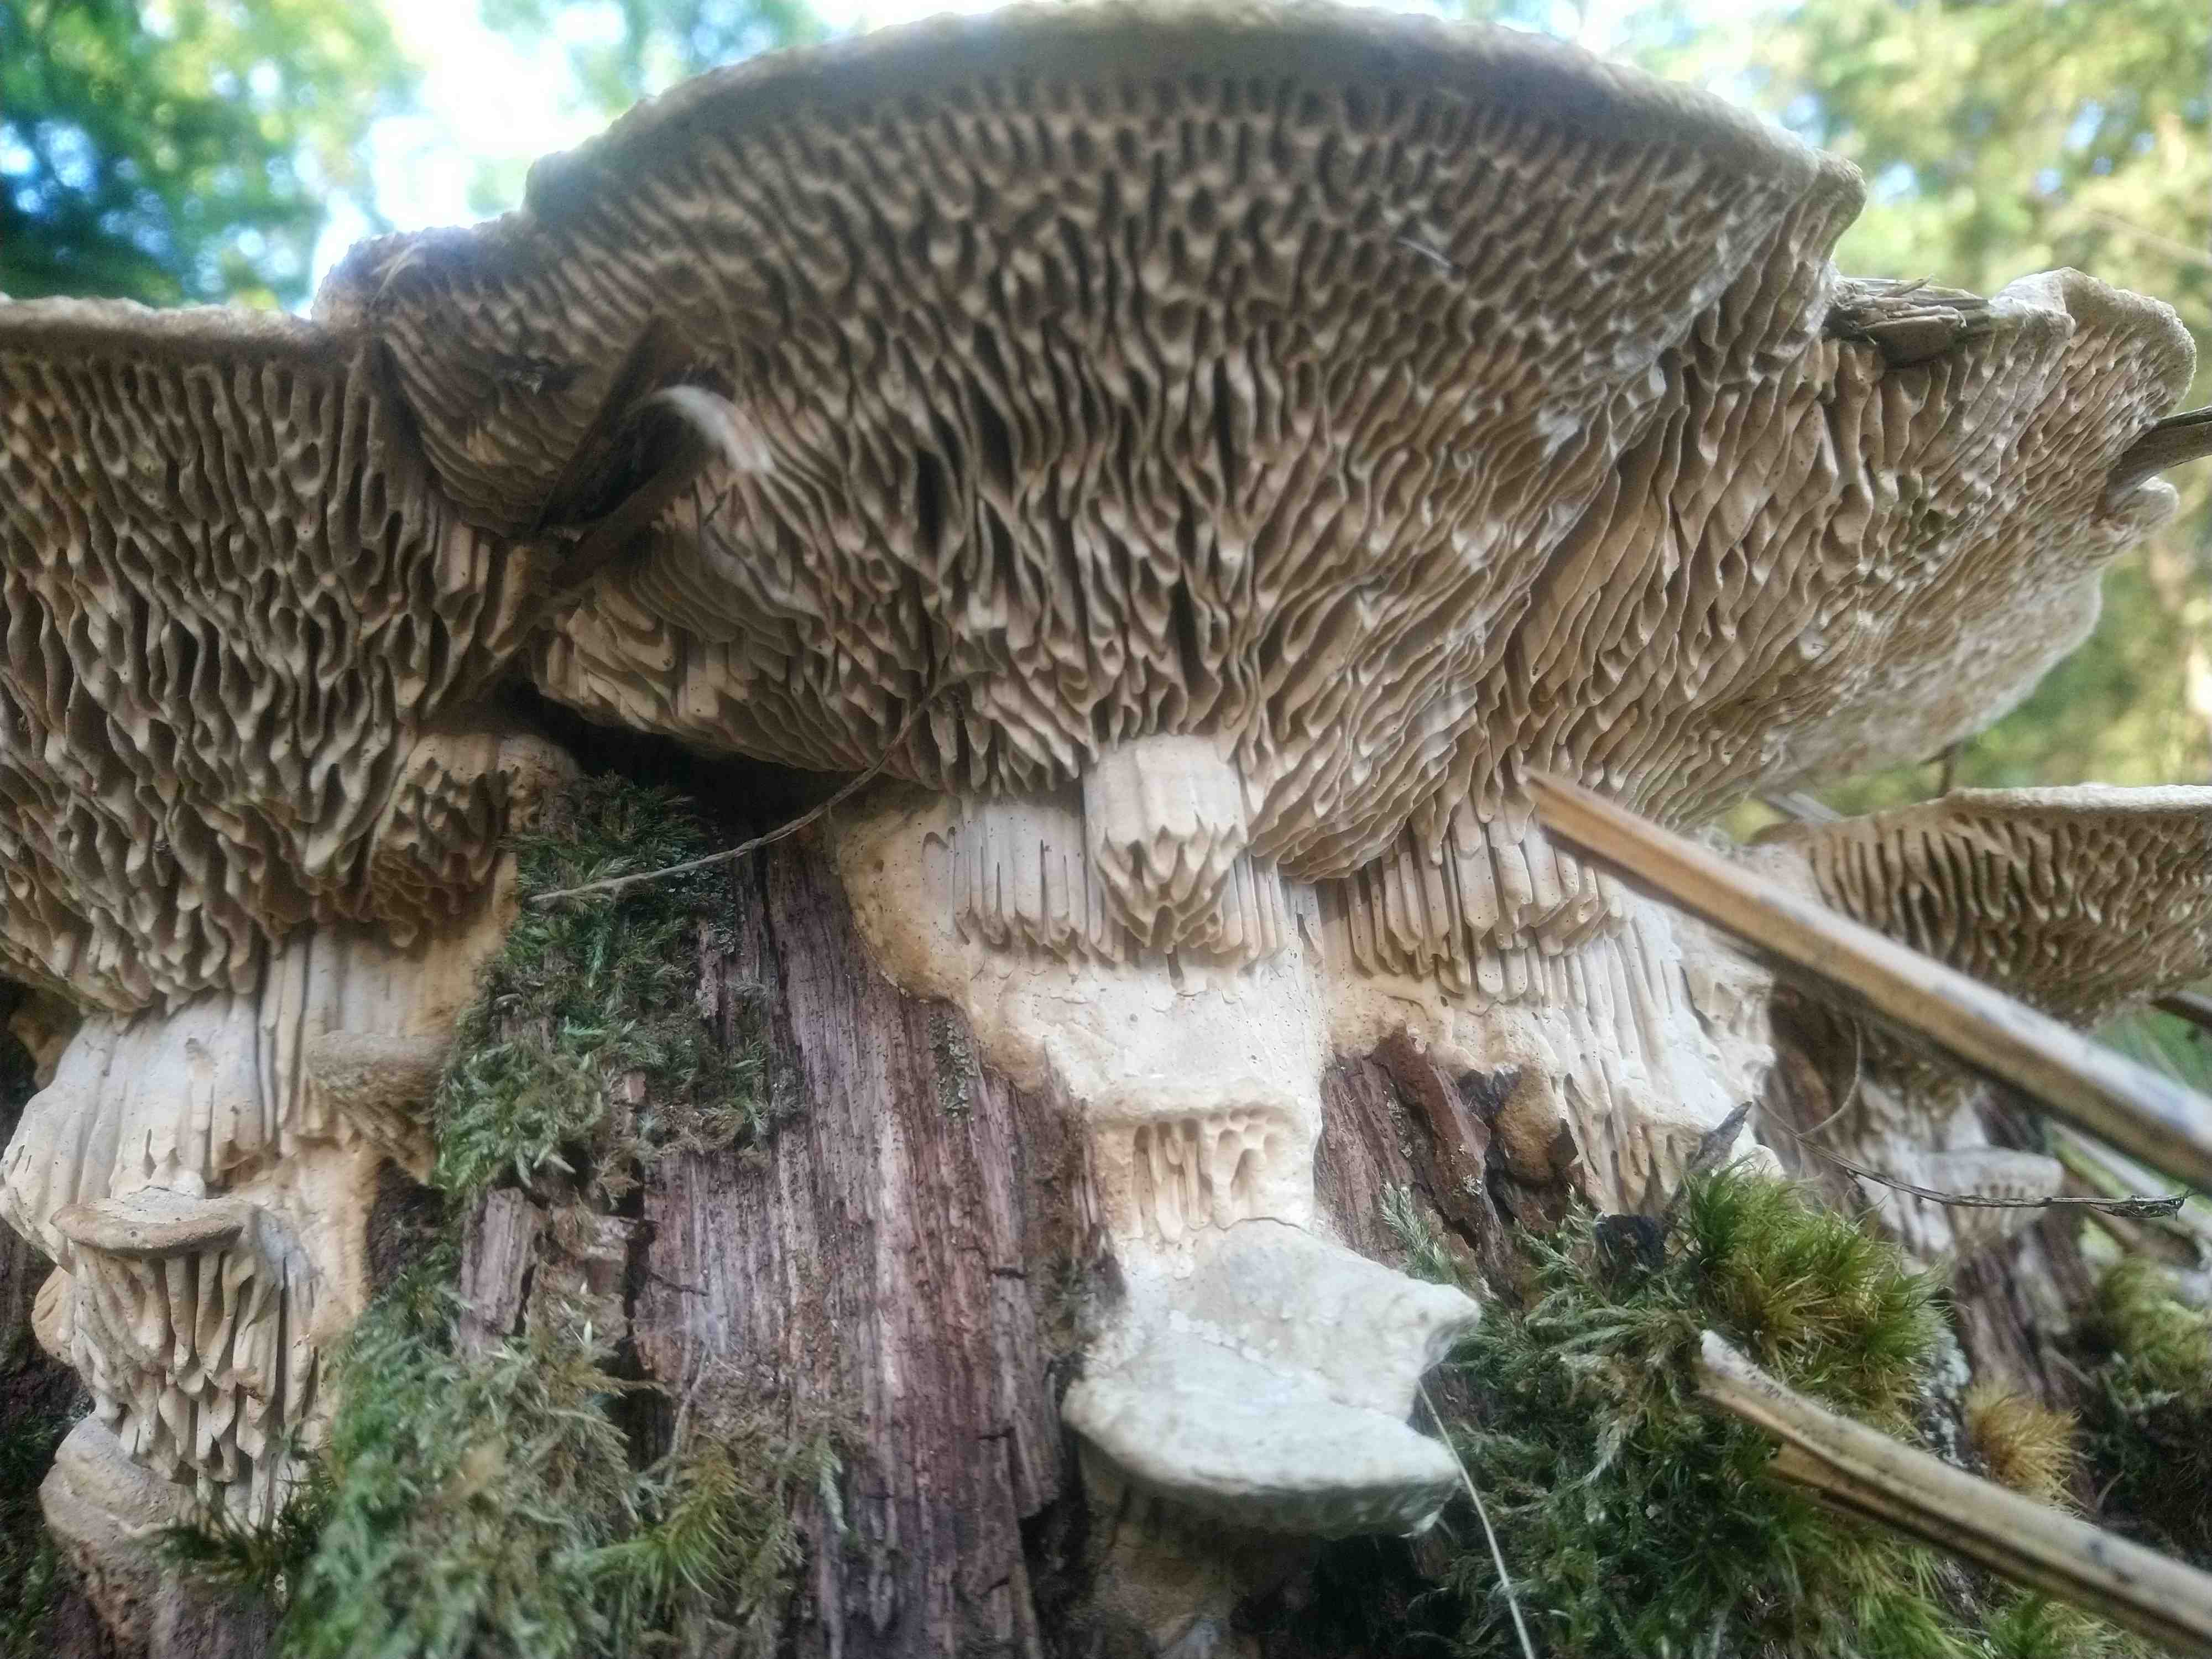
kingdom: Fungi
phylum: Basidiomycota
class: Agaricomycetes
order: Polyporales
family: Fomitopsidaceae
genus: Daedalea
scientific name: Daedalea quercina
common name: ege-labyrintsvamp
